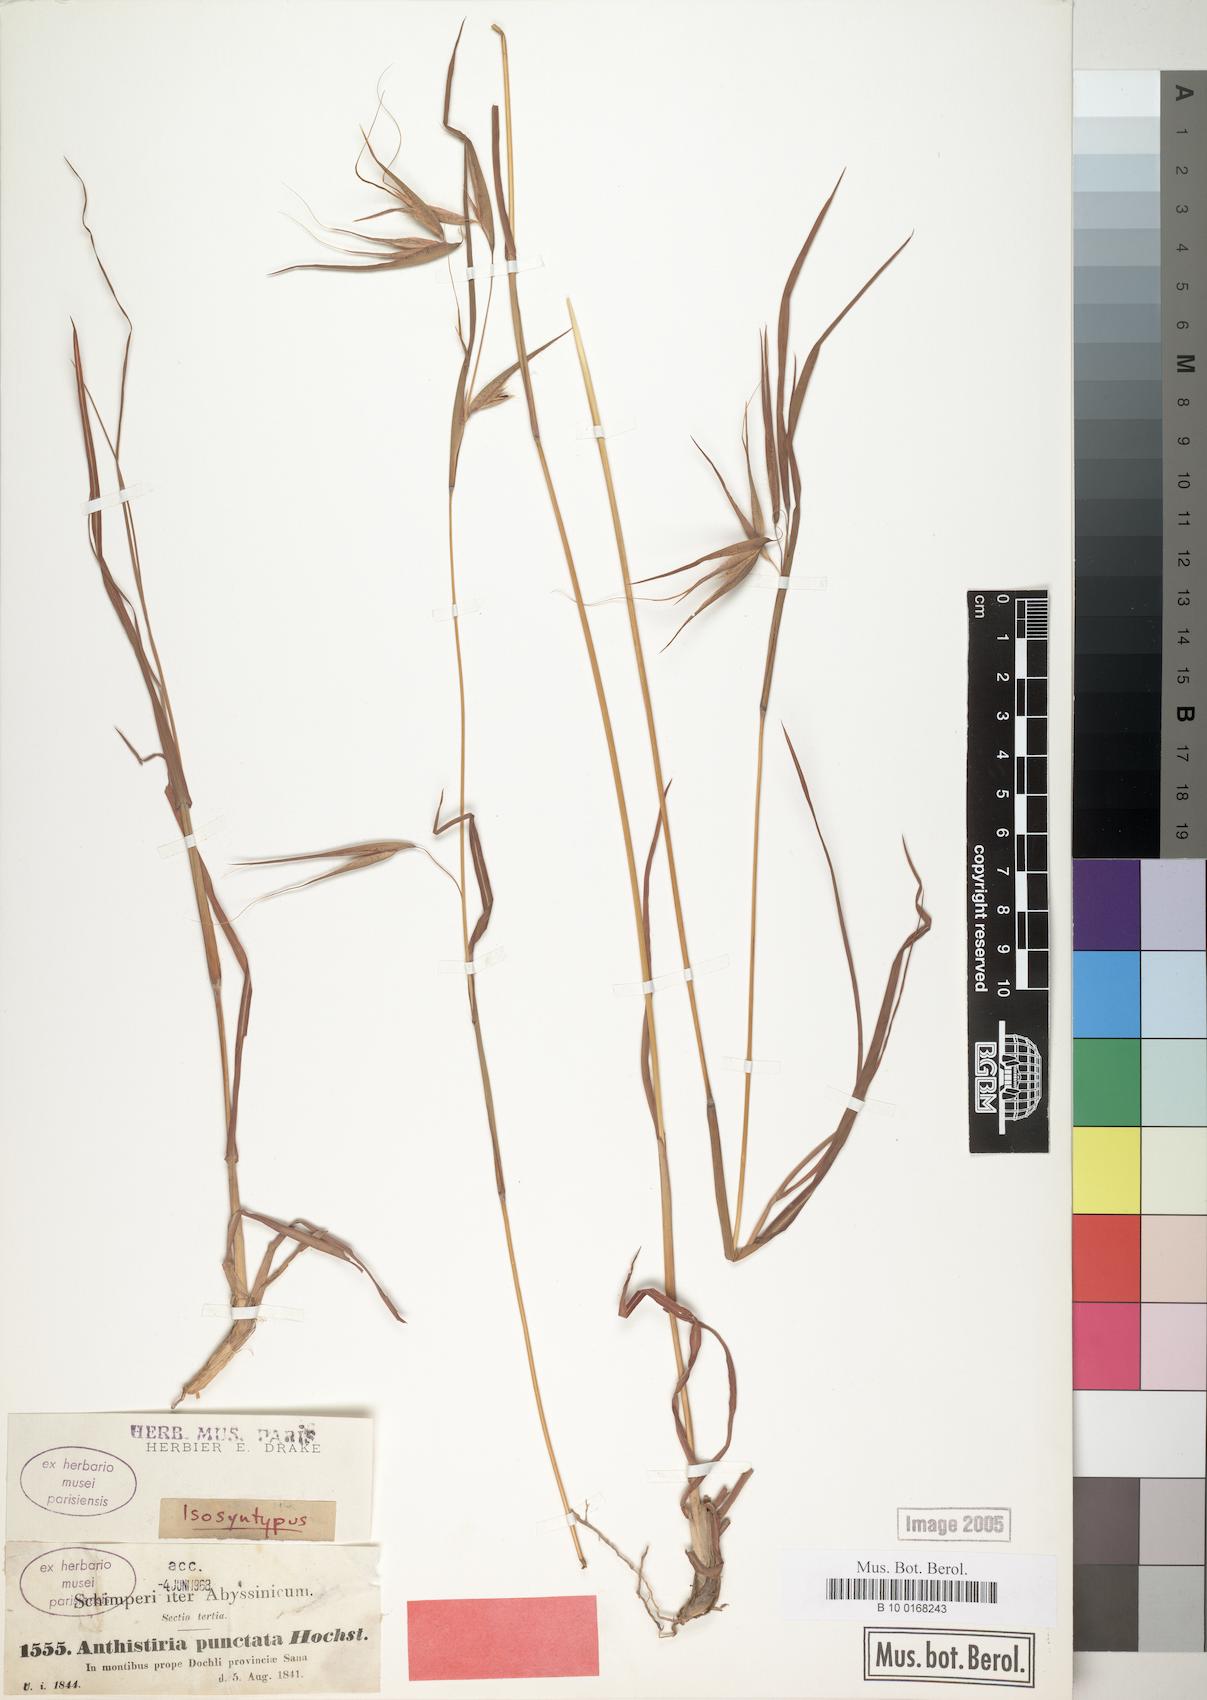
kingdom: Plantae
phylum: Tracheophyta
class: Liliopsida
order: Poales
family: Poaceae
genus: Themeda
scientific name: Themeda triandra
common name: Kangaroo grass
